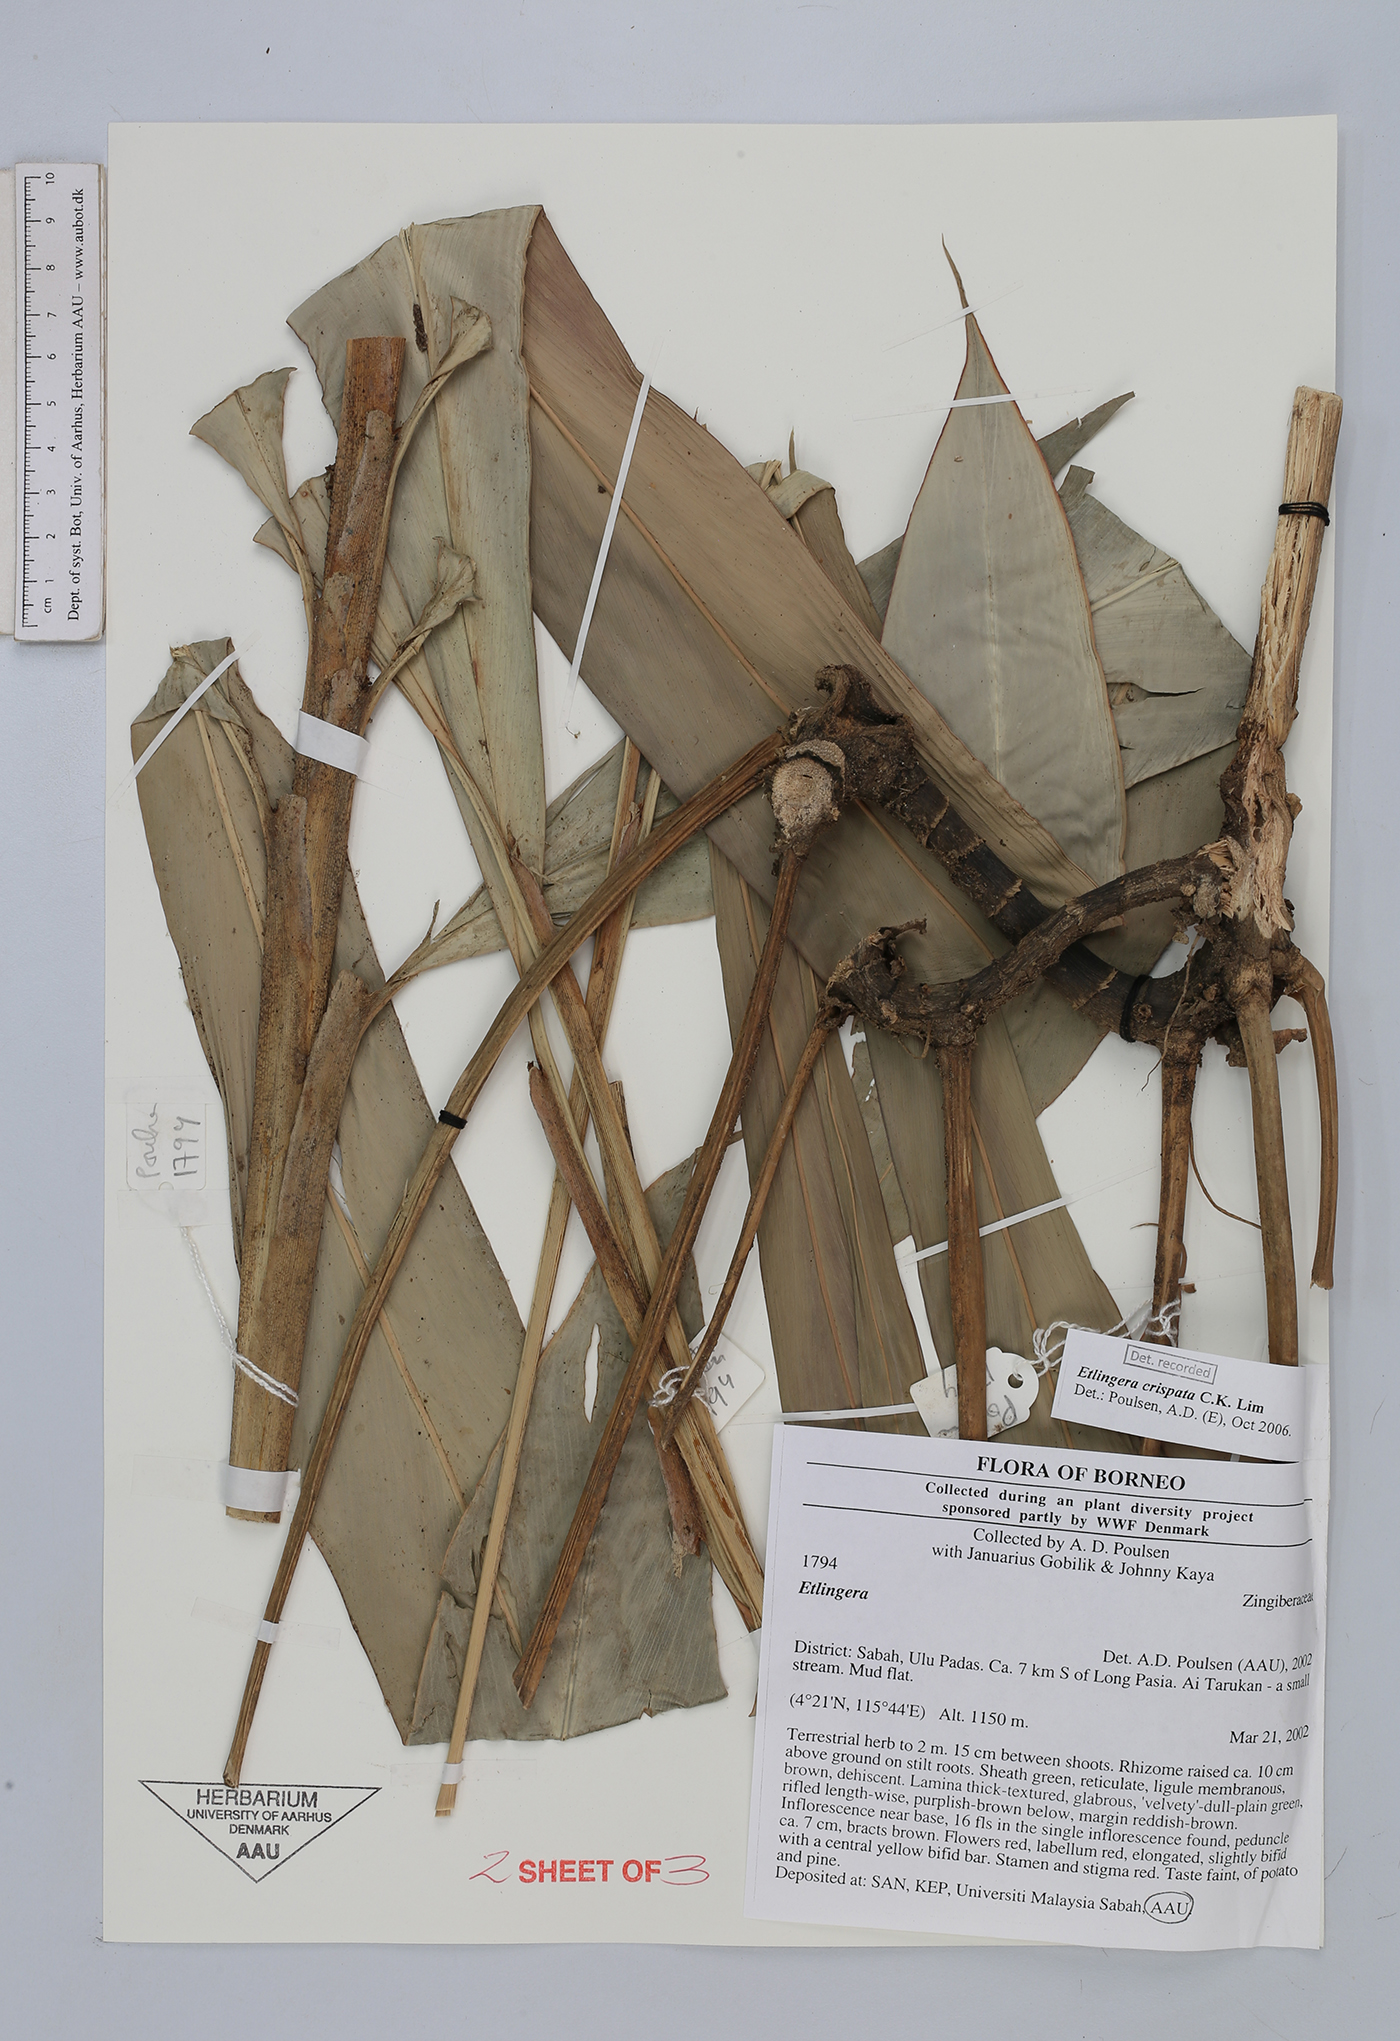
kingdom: Plantae
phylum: Tracheophyta
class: Liliopsida
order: Zingiberales
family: Zingiberaceae
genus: Etlingera
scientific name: Etlingera crispata
